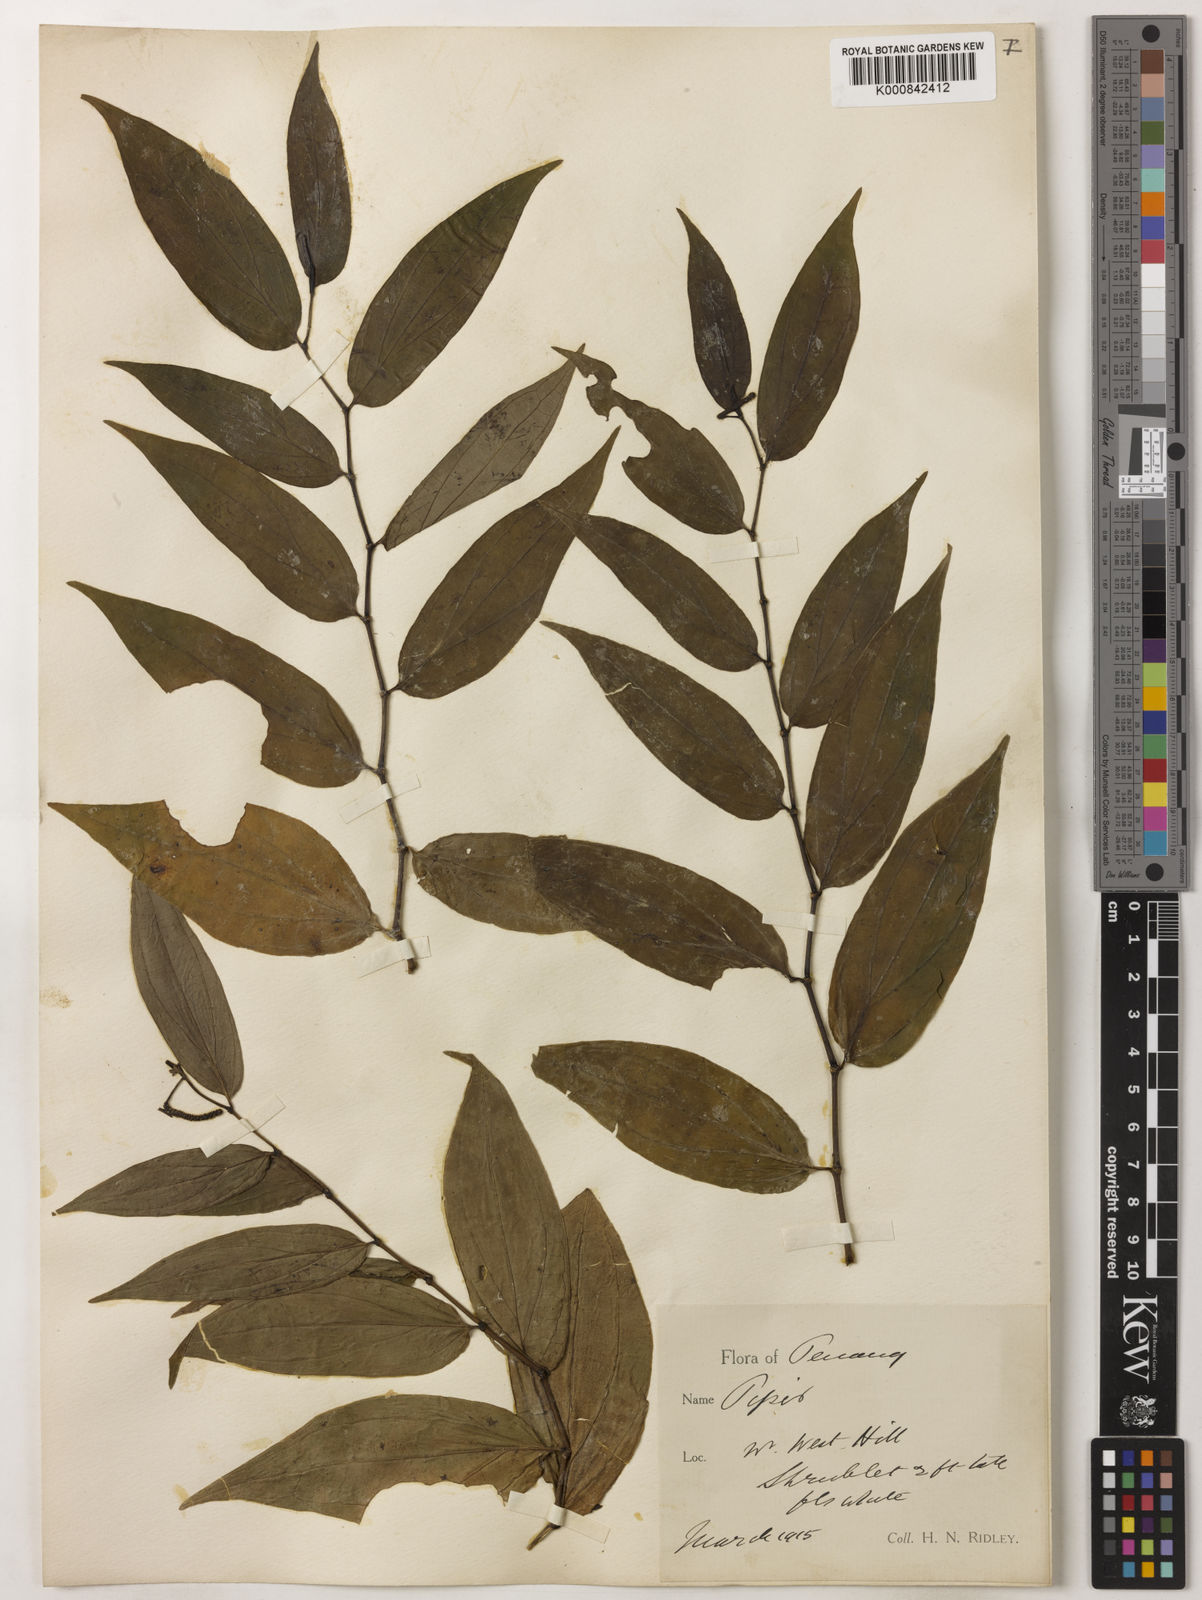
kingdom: Plantae
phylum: Tracheophyta
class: Magnoliopsida
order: Piperales
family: Piperaceae
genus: Piper
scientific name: Piper penangense
